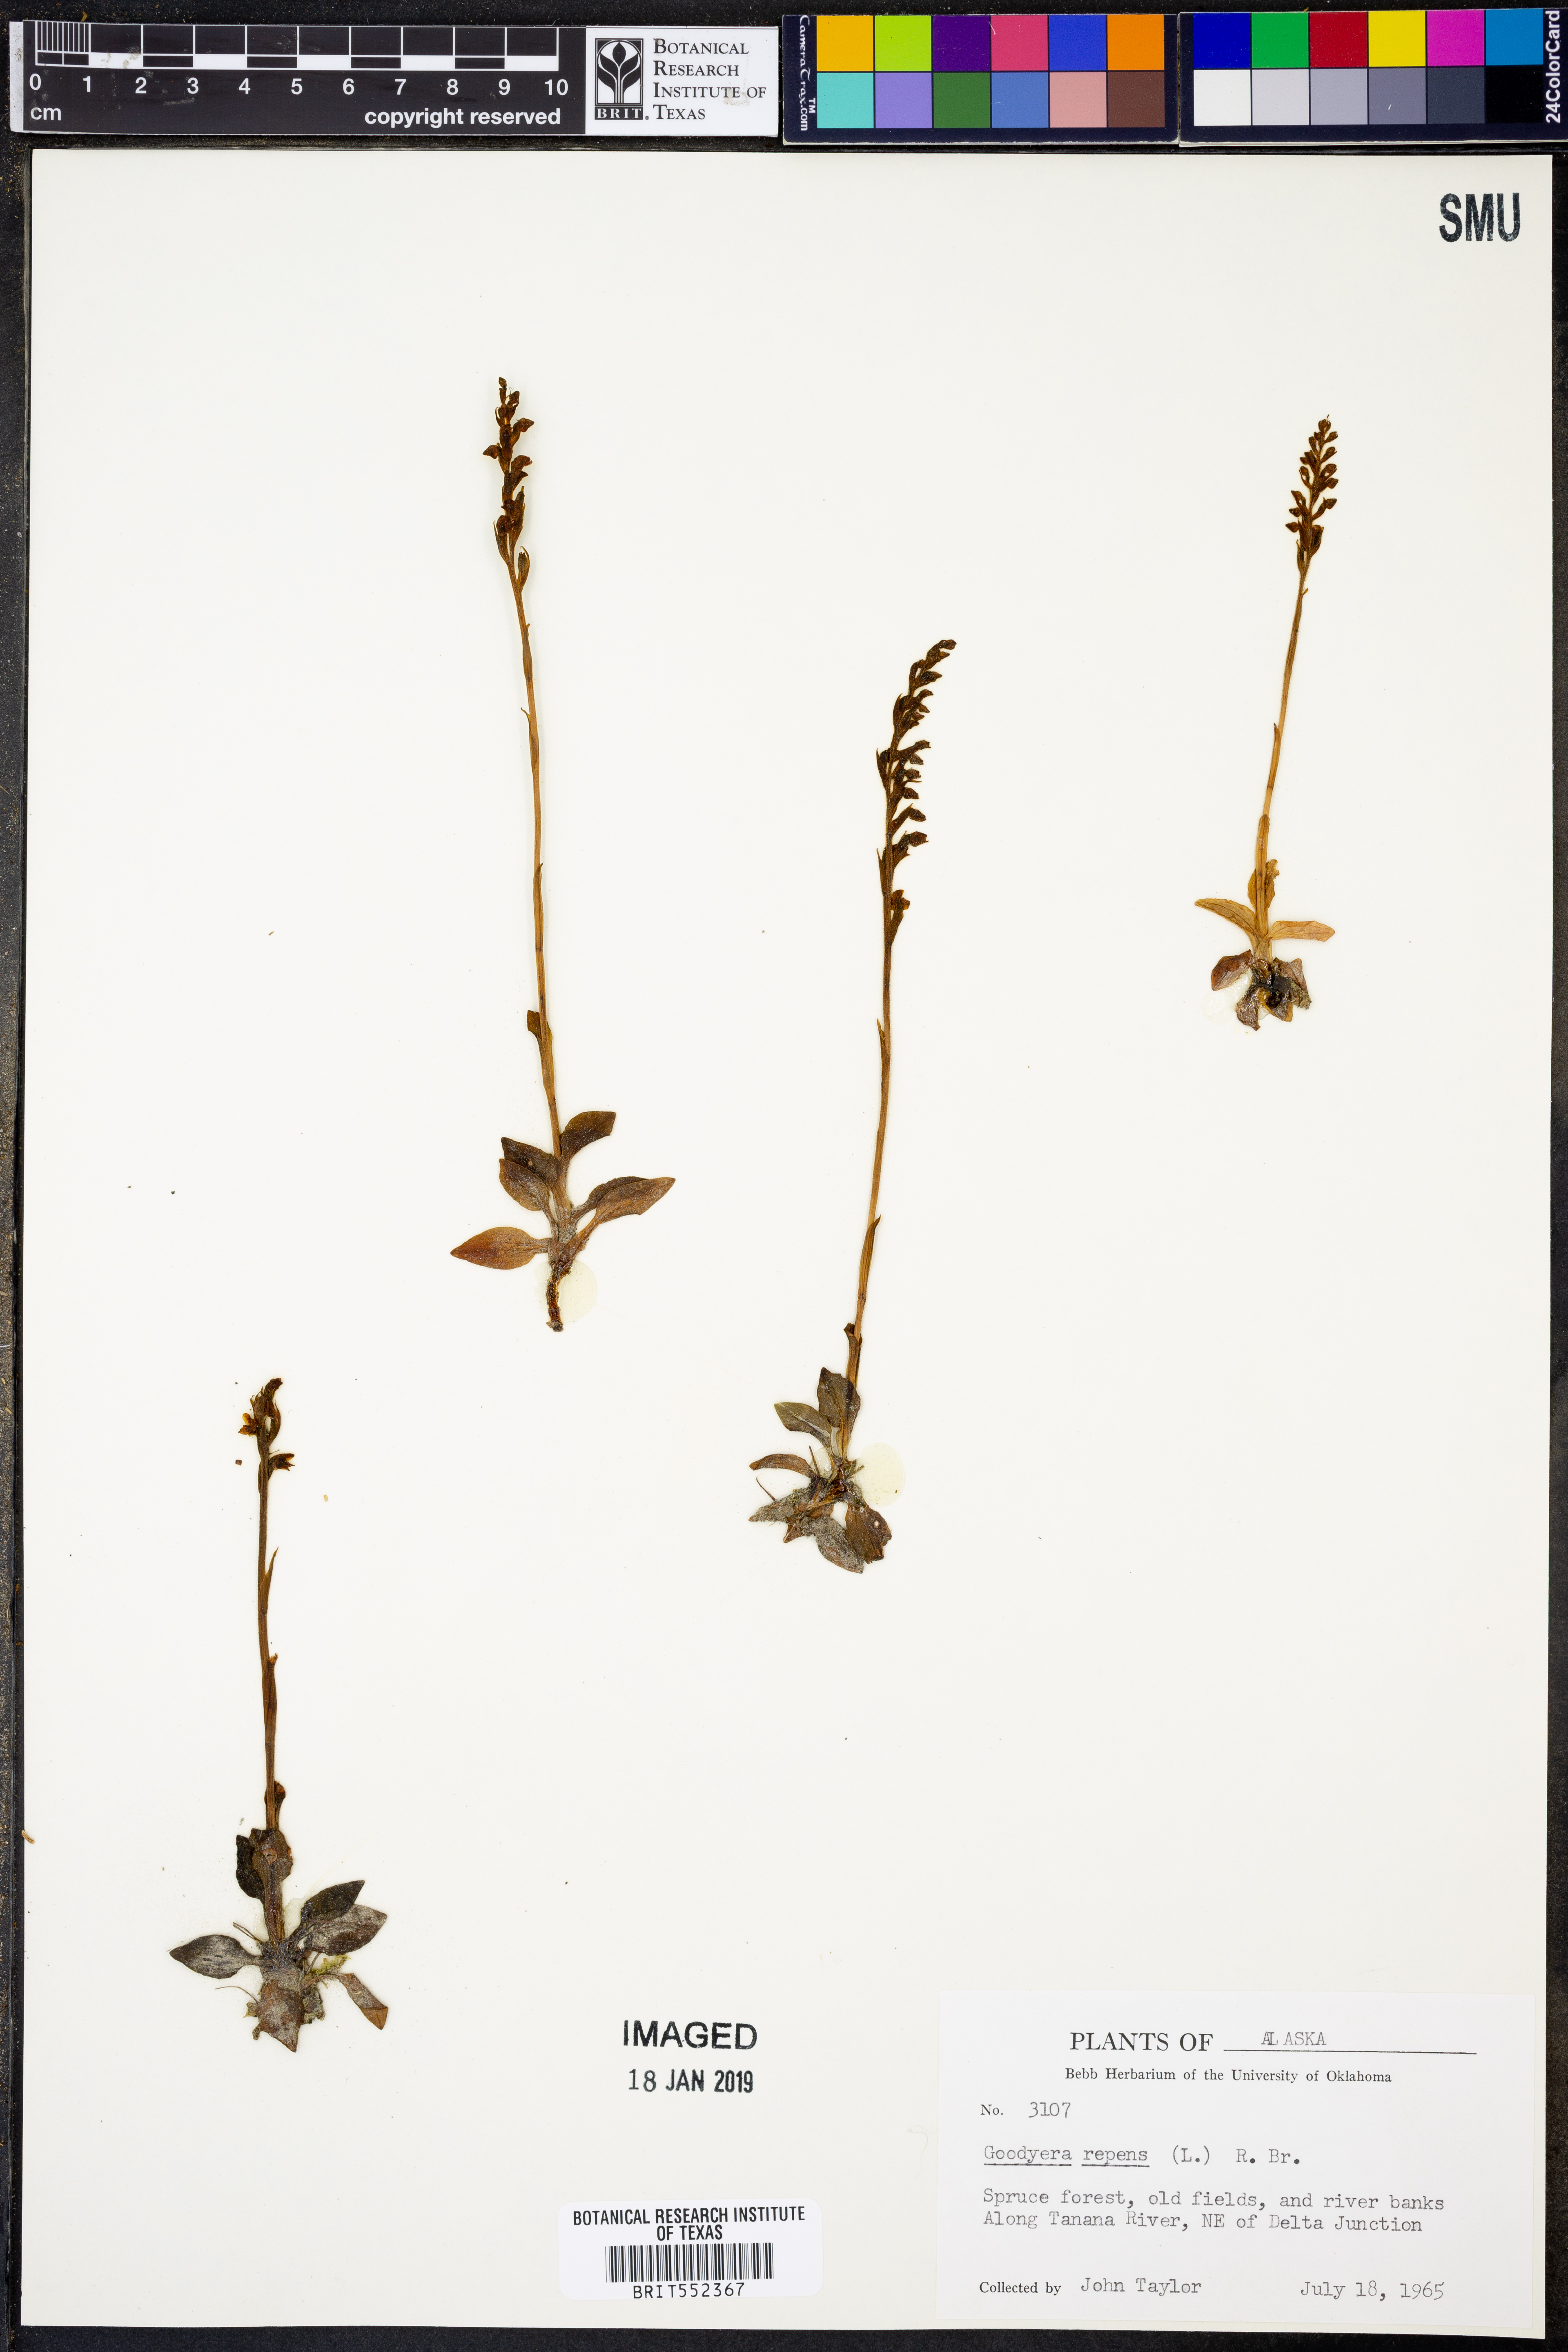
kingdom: Plantae
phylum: Tracheophyta
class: Liliopsida
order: Asparagales
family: Orchidaceae
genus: Goodyera
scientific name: Goodyera repens
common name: Creeping lady's-tresses
